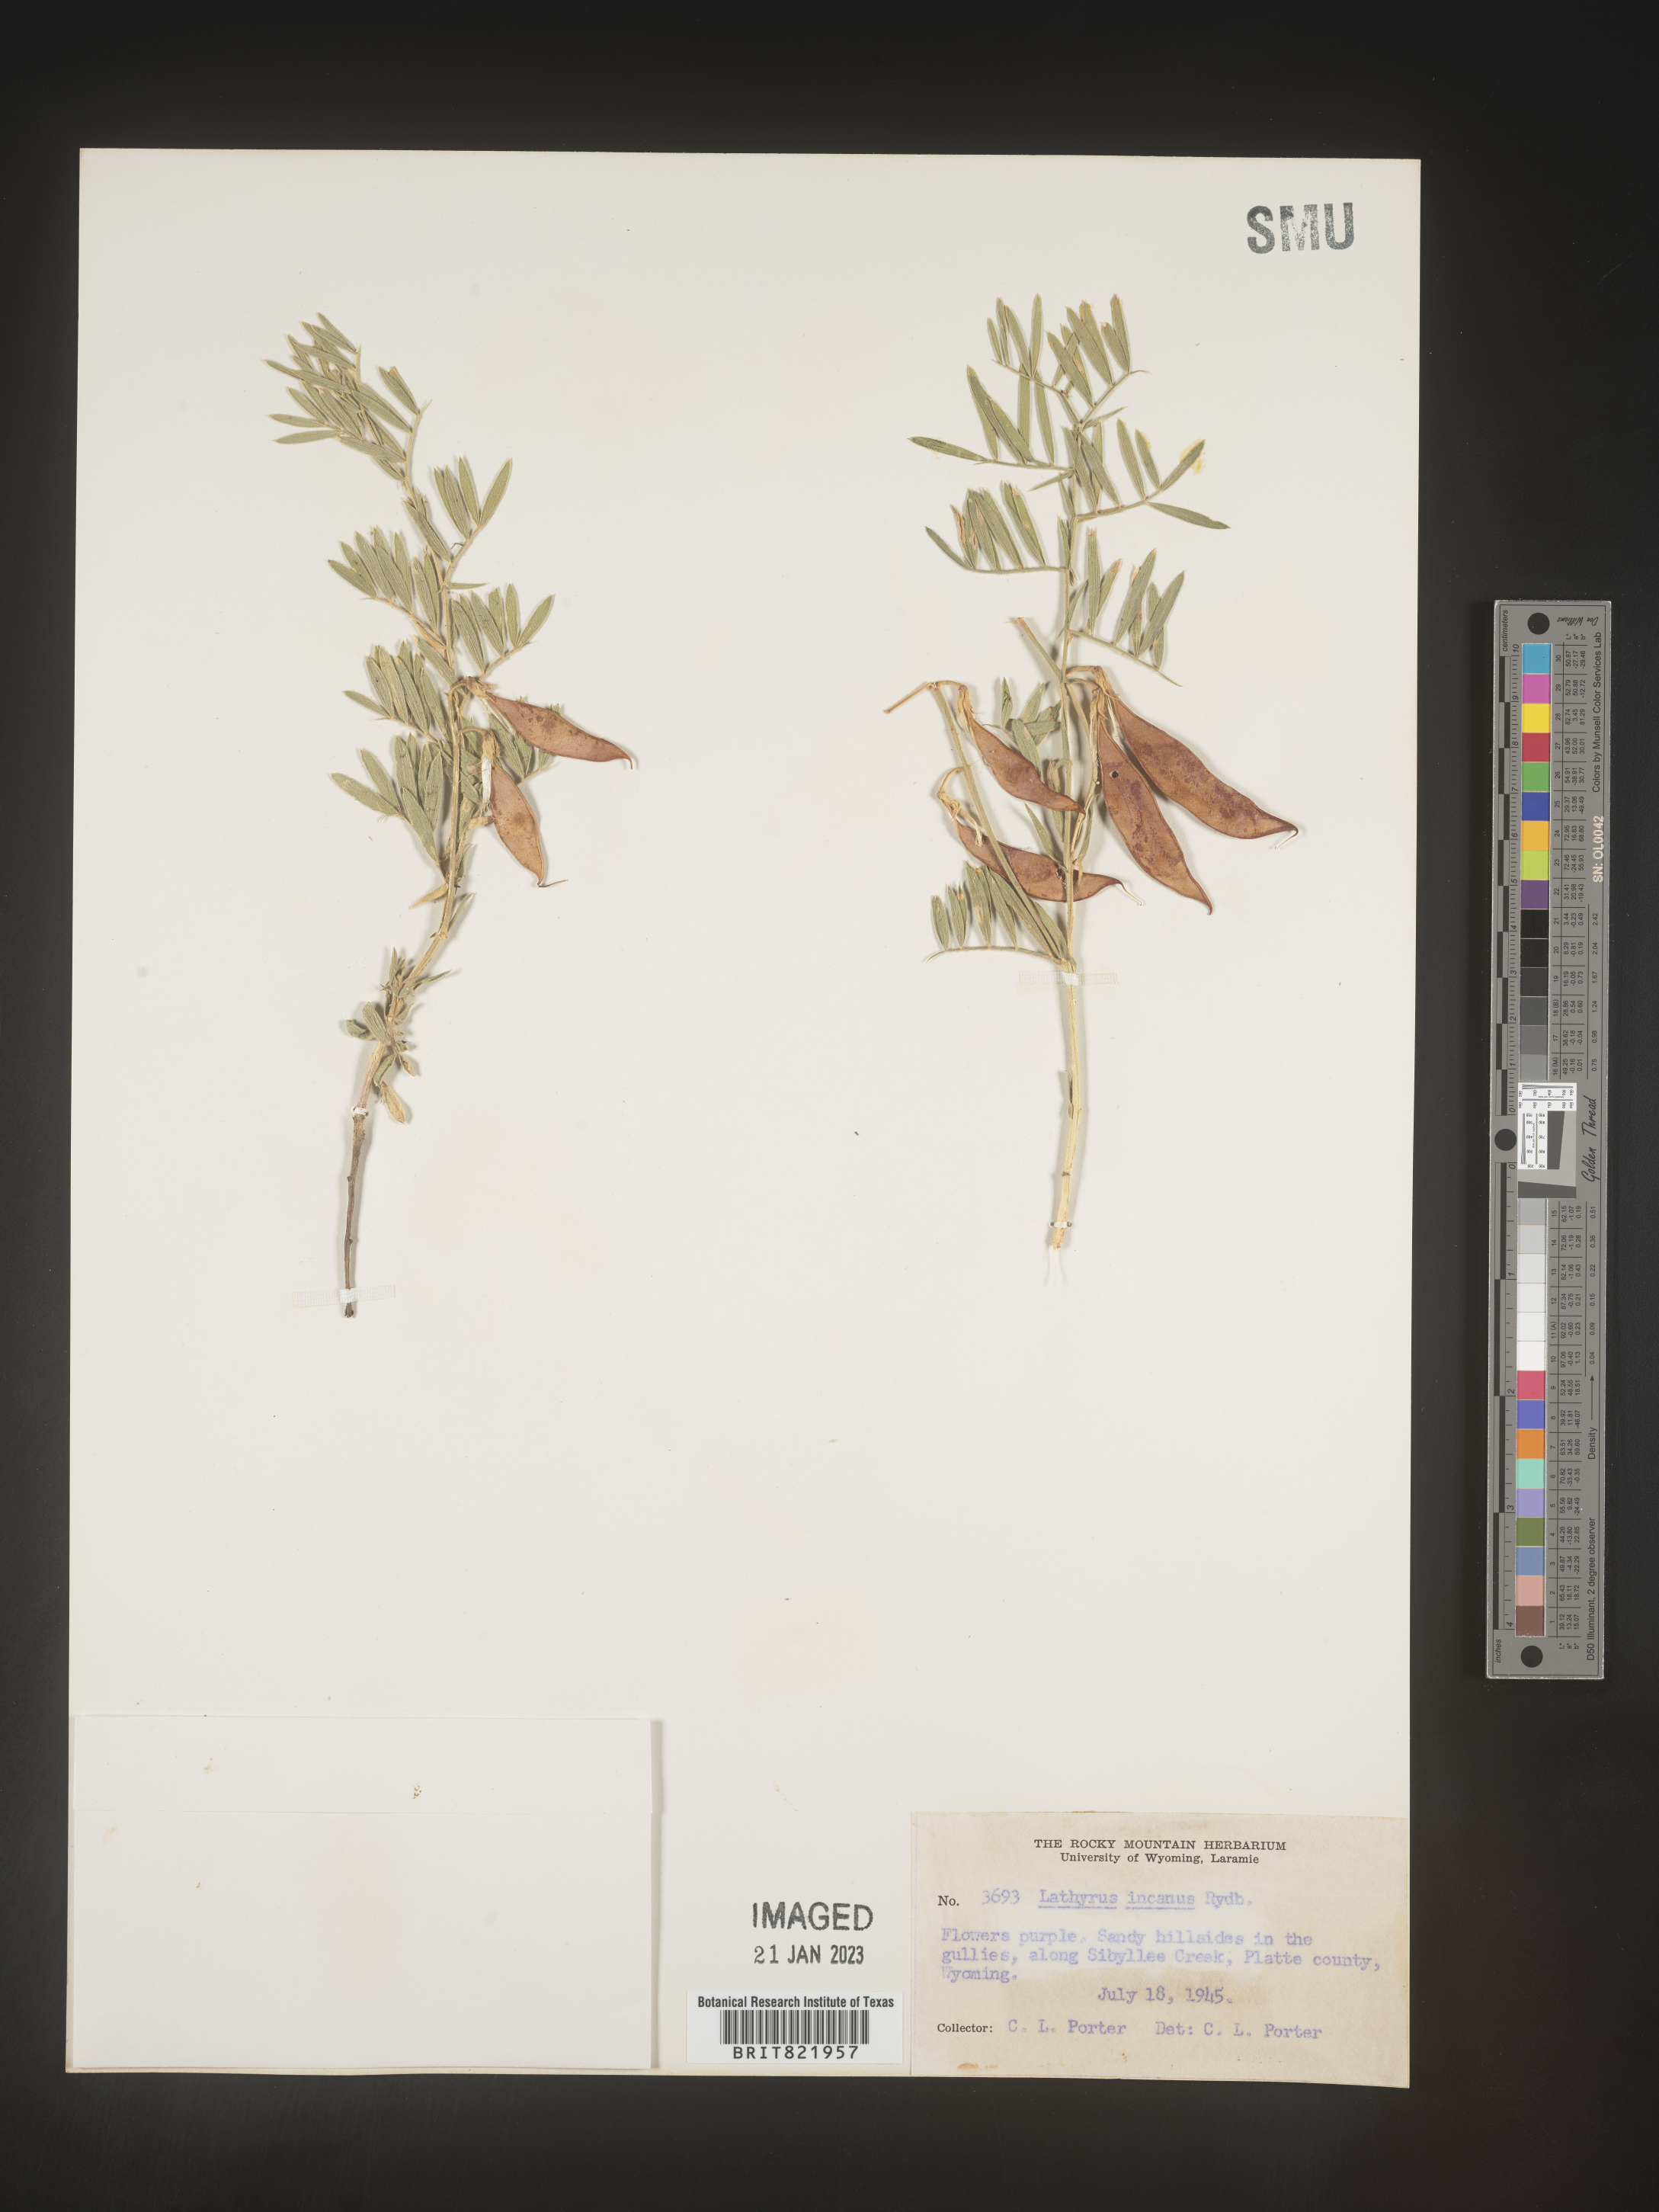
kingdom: Plantae
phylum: Tracheophyta
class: Magnoliopsida
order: Fabales
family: Fabaceae
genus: Lathyrus
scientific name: Lathyrus hirsutus
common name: Hairy vetchling
